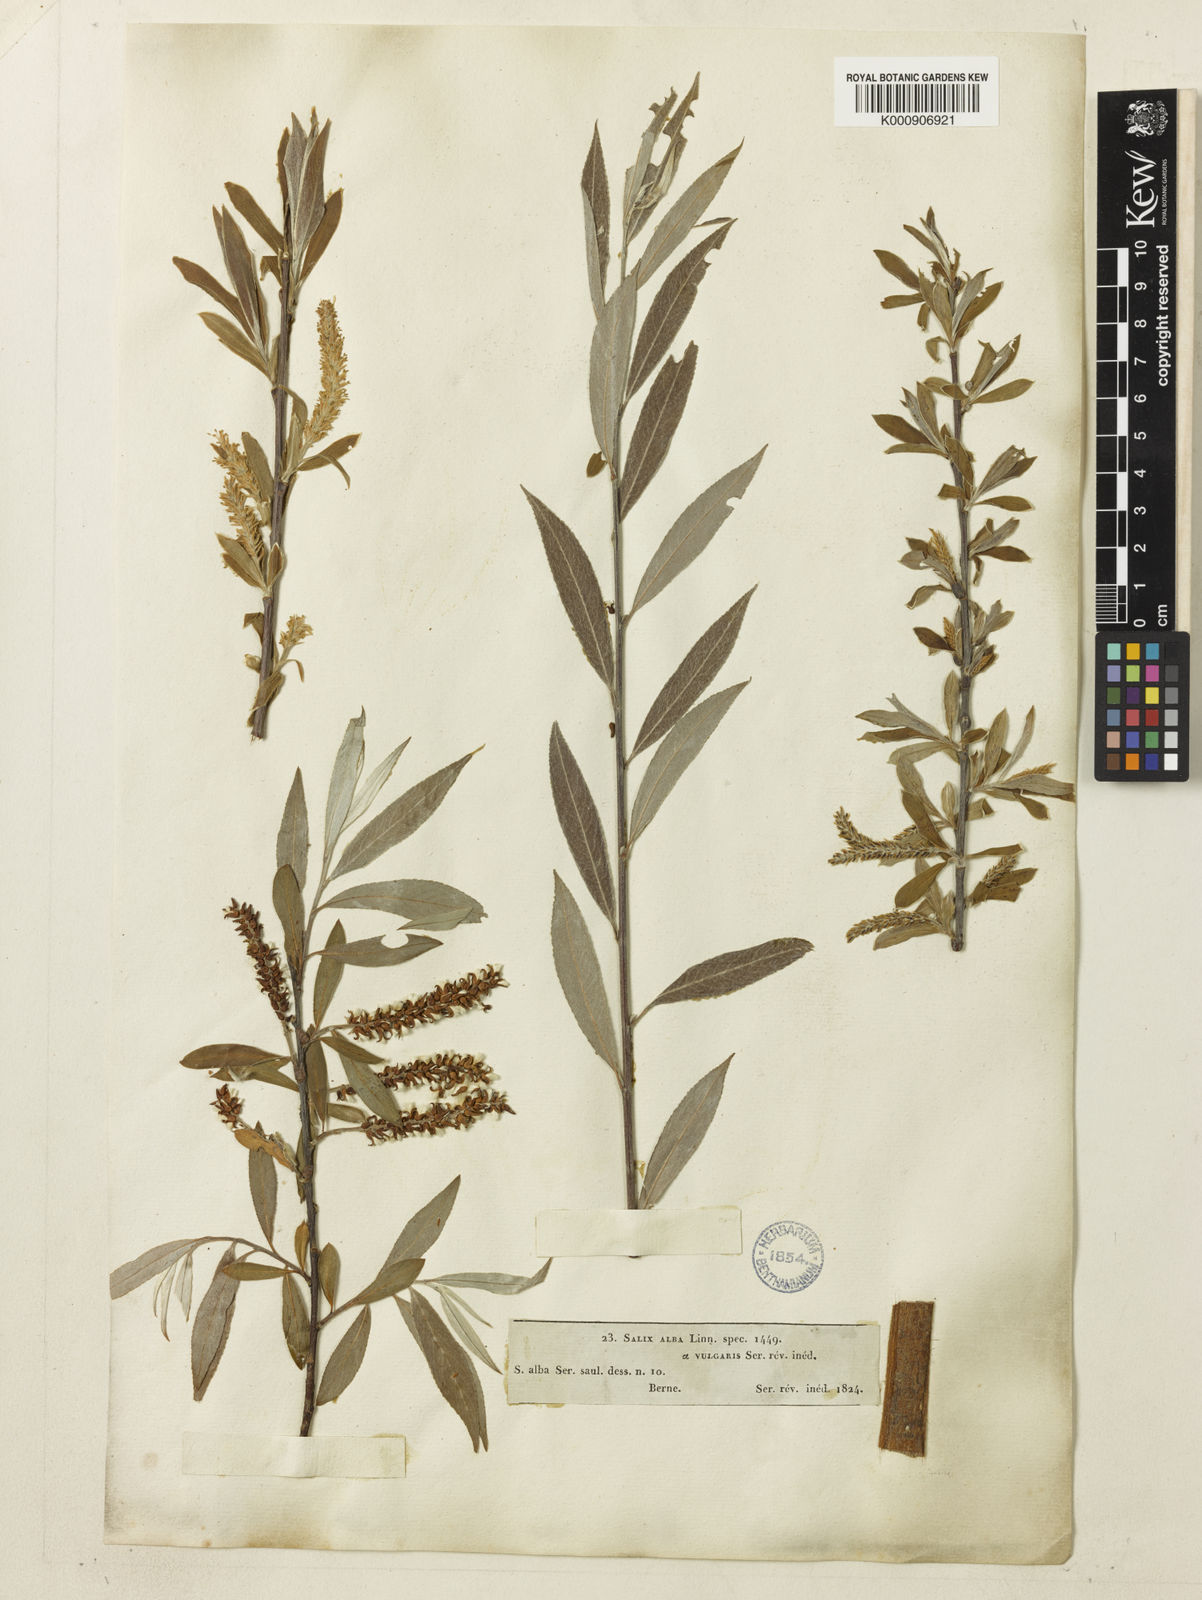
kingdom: Plantae
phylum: Tracheophyta
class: Magnoliopsida
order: Malpighiales
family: Salicaceae
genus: Salix
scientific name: Salix alba
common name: White willow
